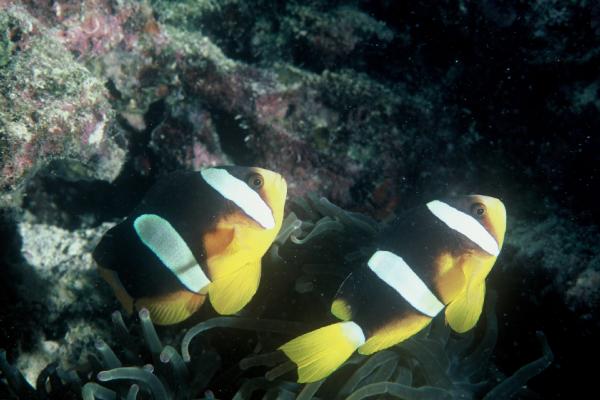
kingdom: Animalia
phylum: Chordata
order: Perciformes
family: Pomacentridae
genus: Amphiprion
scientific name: Amphiprion clarkii
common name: Clark's anemonefish
